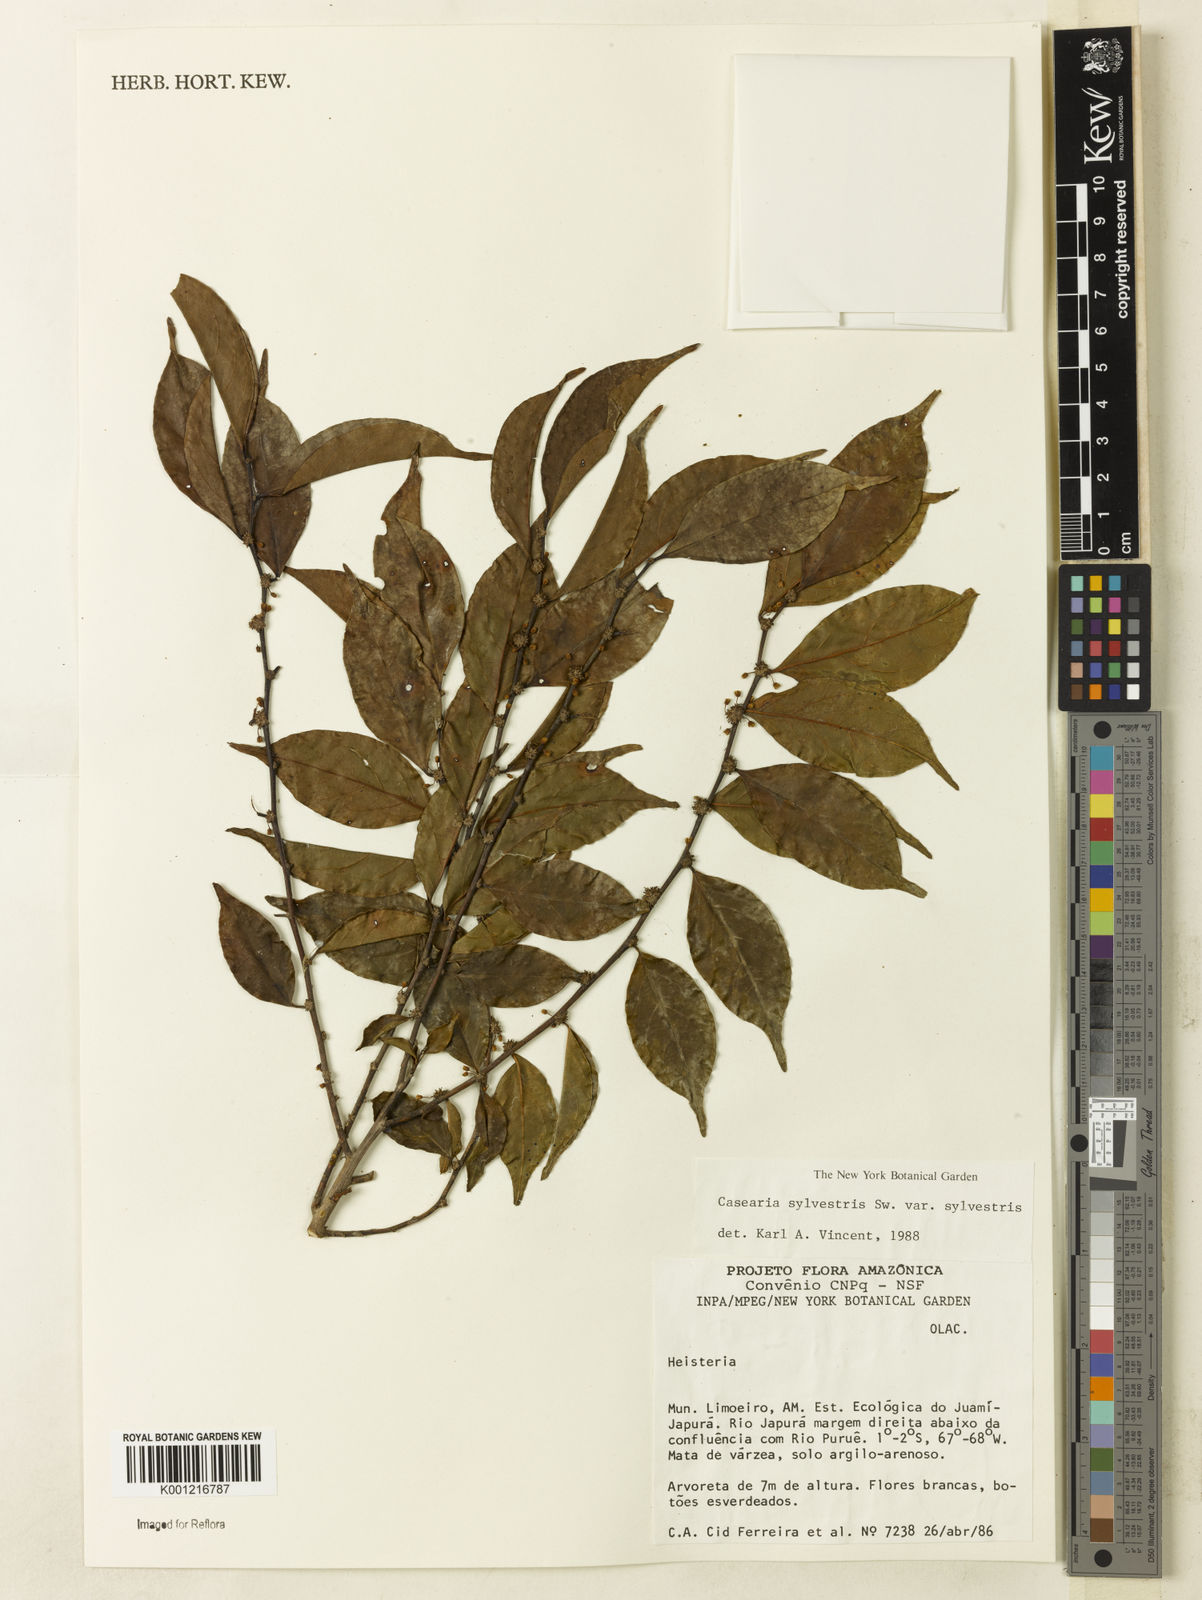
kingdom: Plantae
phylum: Tracheophyta
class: Magnoliopsida
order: Malpighiales
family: Salicaceae
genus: Casearia
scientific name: Casearia sylvestris
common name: Wild sage
